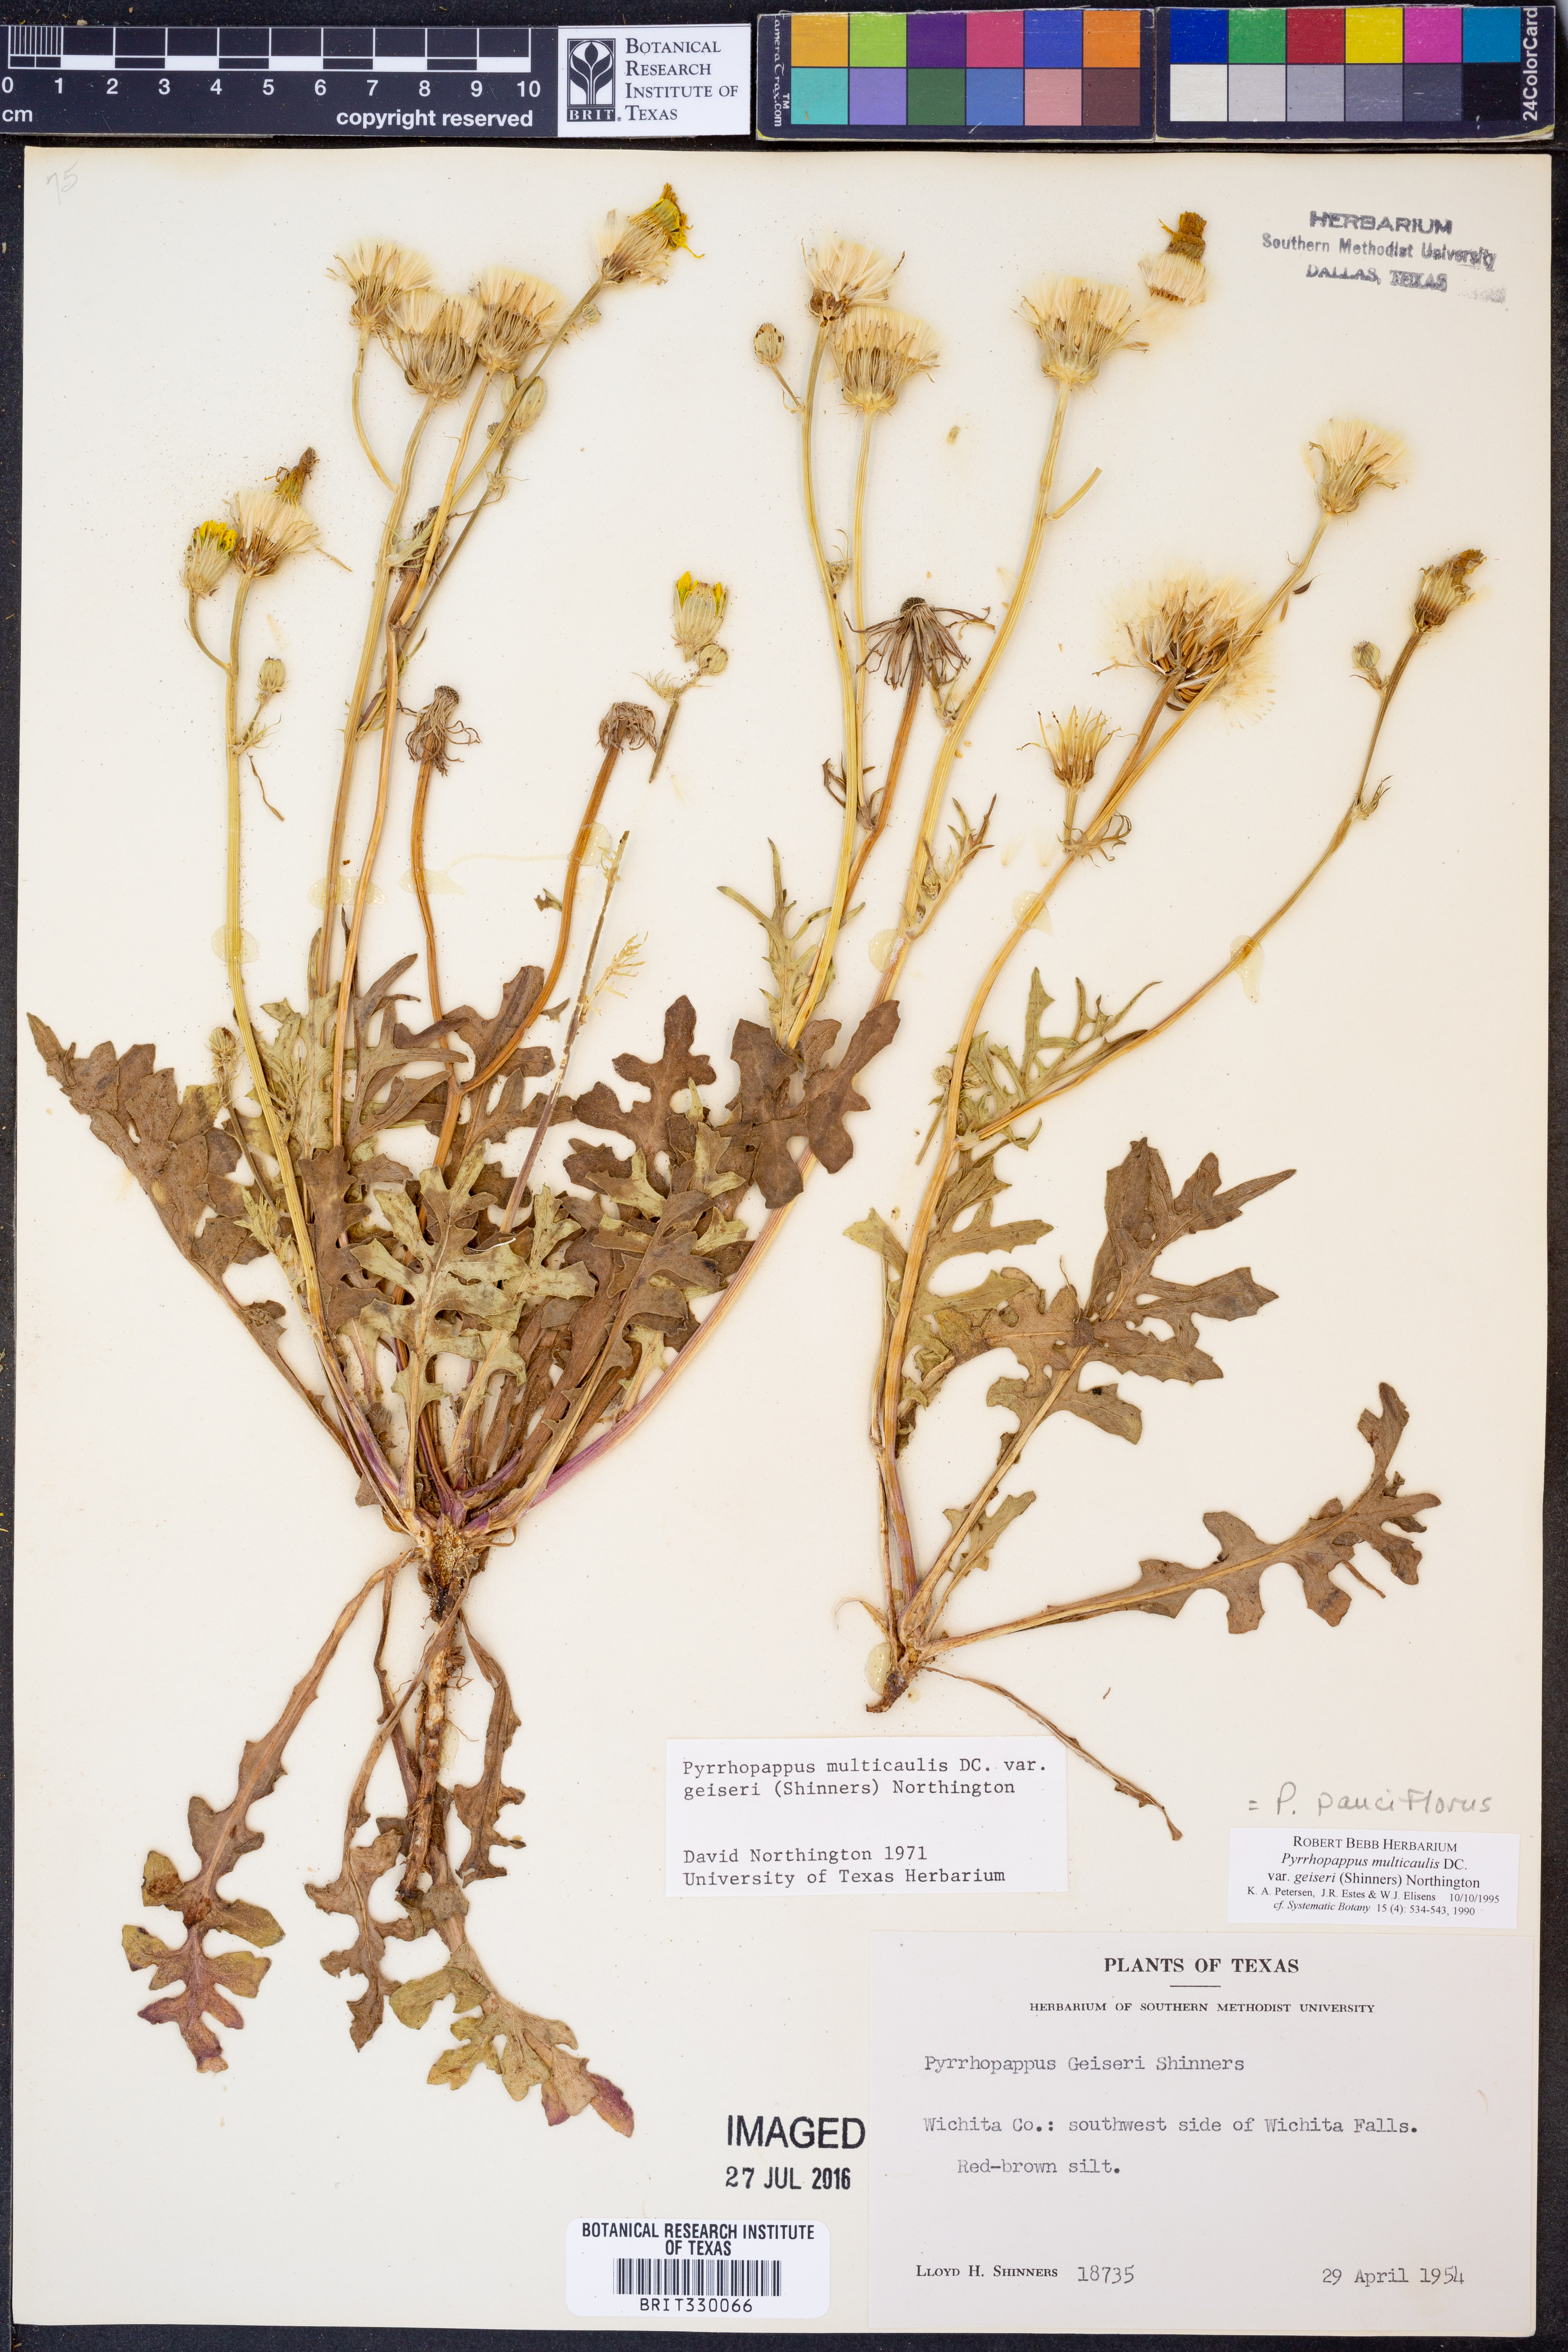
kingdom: Plantae
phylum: Tracheophyta
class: Magnoliopsida
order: Asterales
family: Asteraceae
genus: Pyrrhopappus
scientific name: Pyrrhopappus pauciflorus
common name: Texas false dandelion
